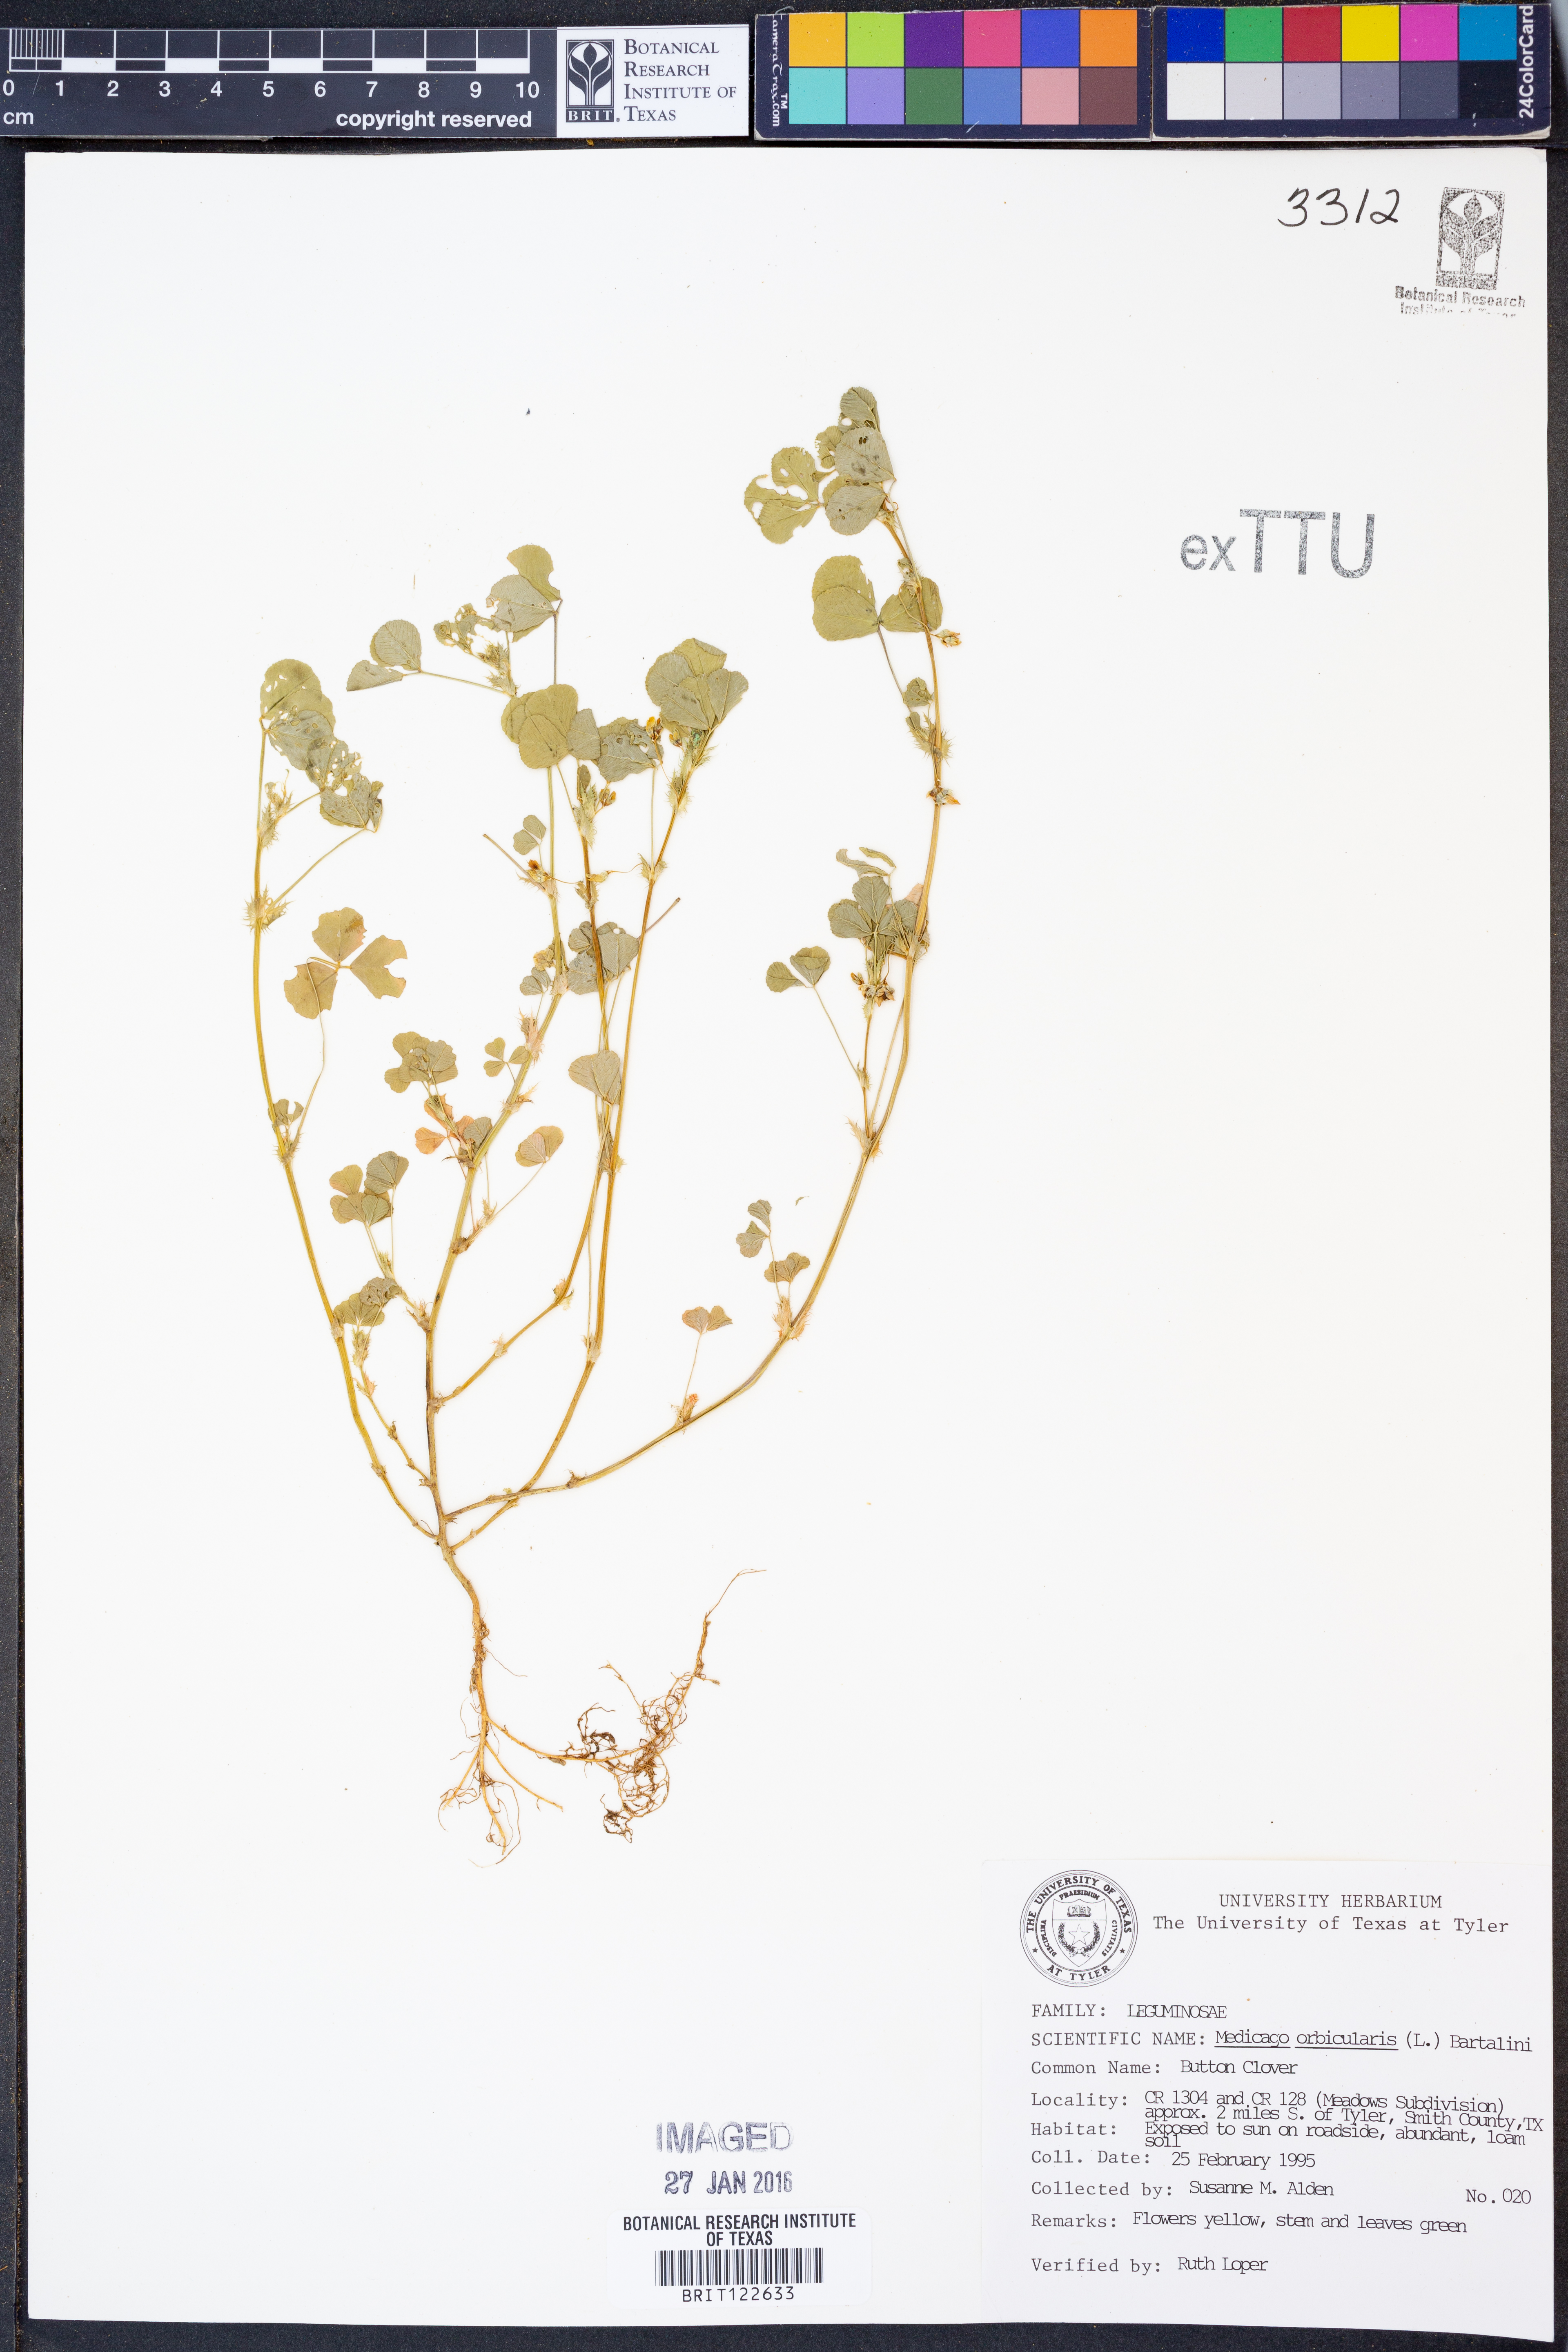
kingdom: Plantae
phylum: Tracheophyta
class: Magnoliopsida
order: Fabales
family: Fabaceae
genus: Medicago
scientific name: Medicago orbicularis
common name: Button medick
